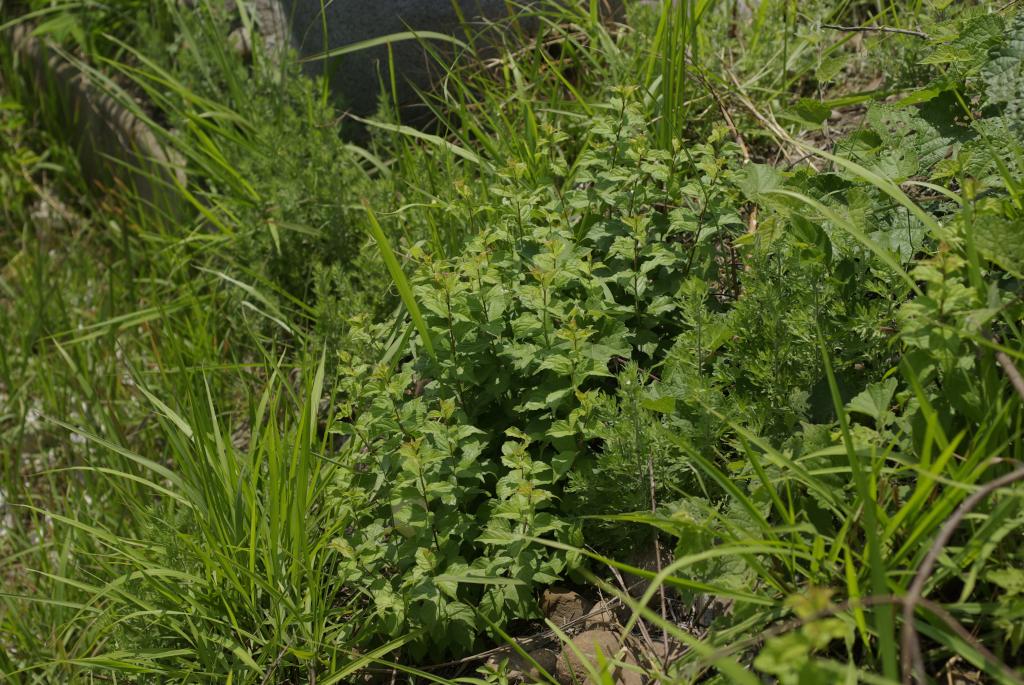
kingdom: Plantae
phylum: Tracheophyta
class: Magnoliopsida
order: Rosales
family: Rosaceae
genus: Prunus
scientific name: Prunus japonica
